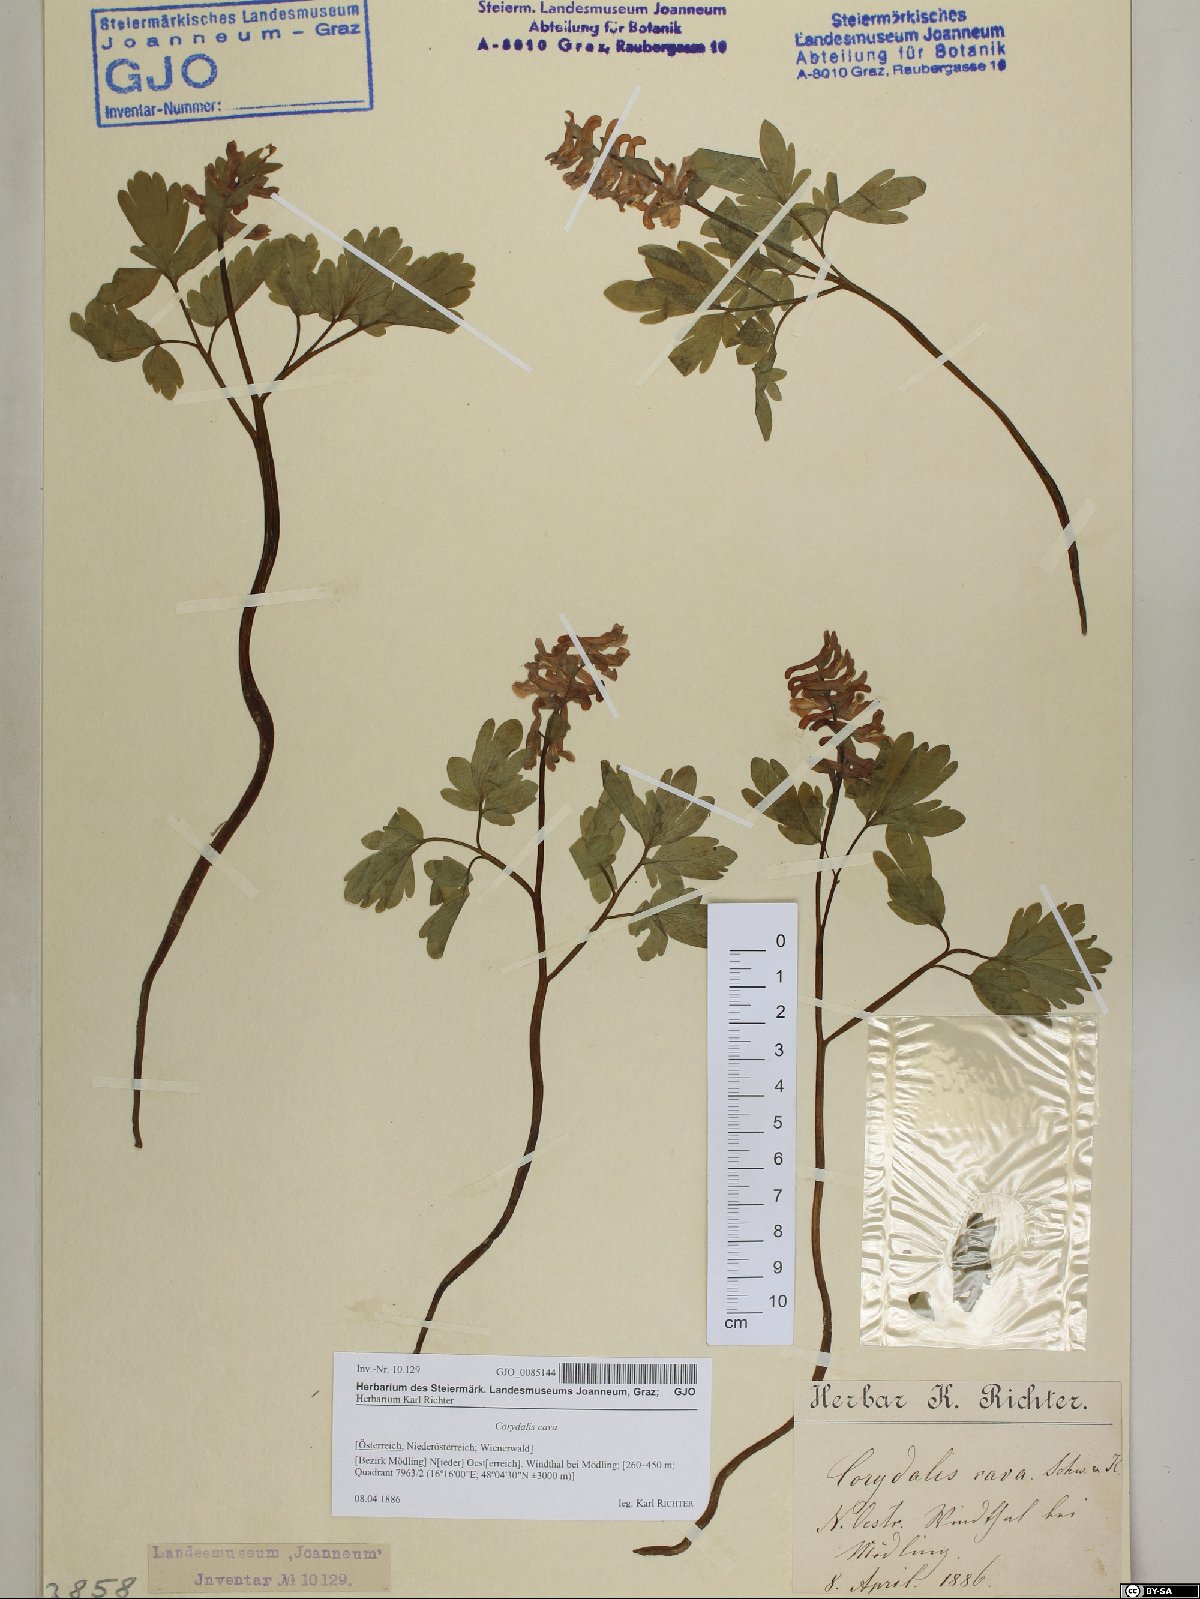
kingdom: Plantae
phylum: Tracheophyta
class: Magnoliopsida
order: Ranunculales
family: Papaveraceae
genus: Corydalis
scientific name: Corydalis cava
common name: Hollowroot
